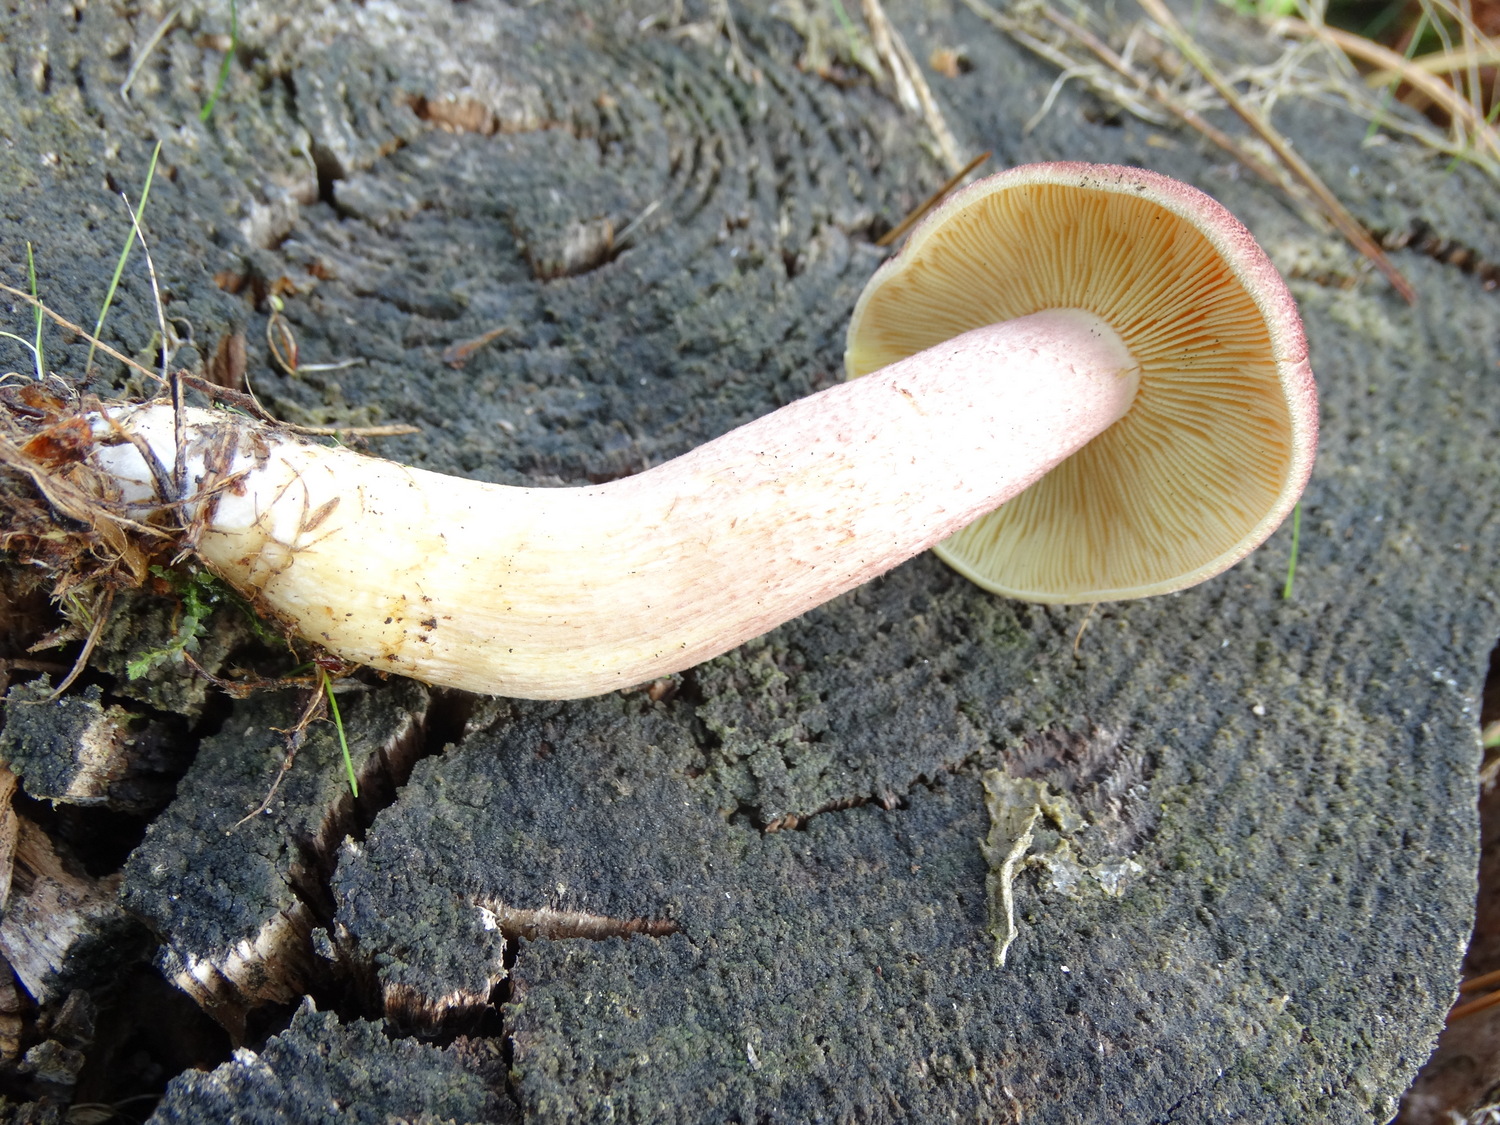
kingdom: Fungi
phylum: Basidiomycota
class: Agaricomycetes
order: Agaricales
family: Tricholomataceae
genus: Tricholomopsis
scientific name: Tricholomopsis rutilans
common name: purpur-væbnerhat
